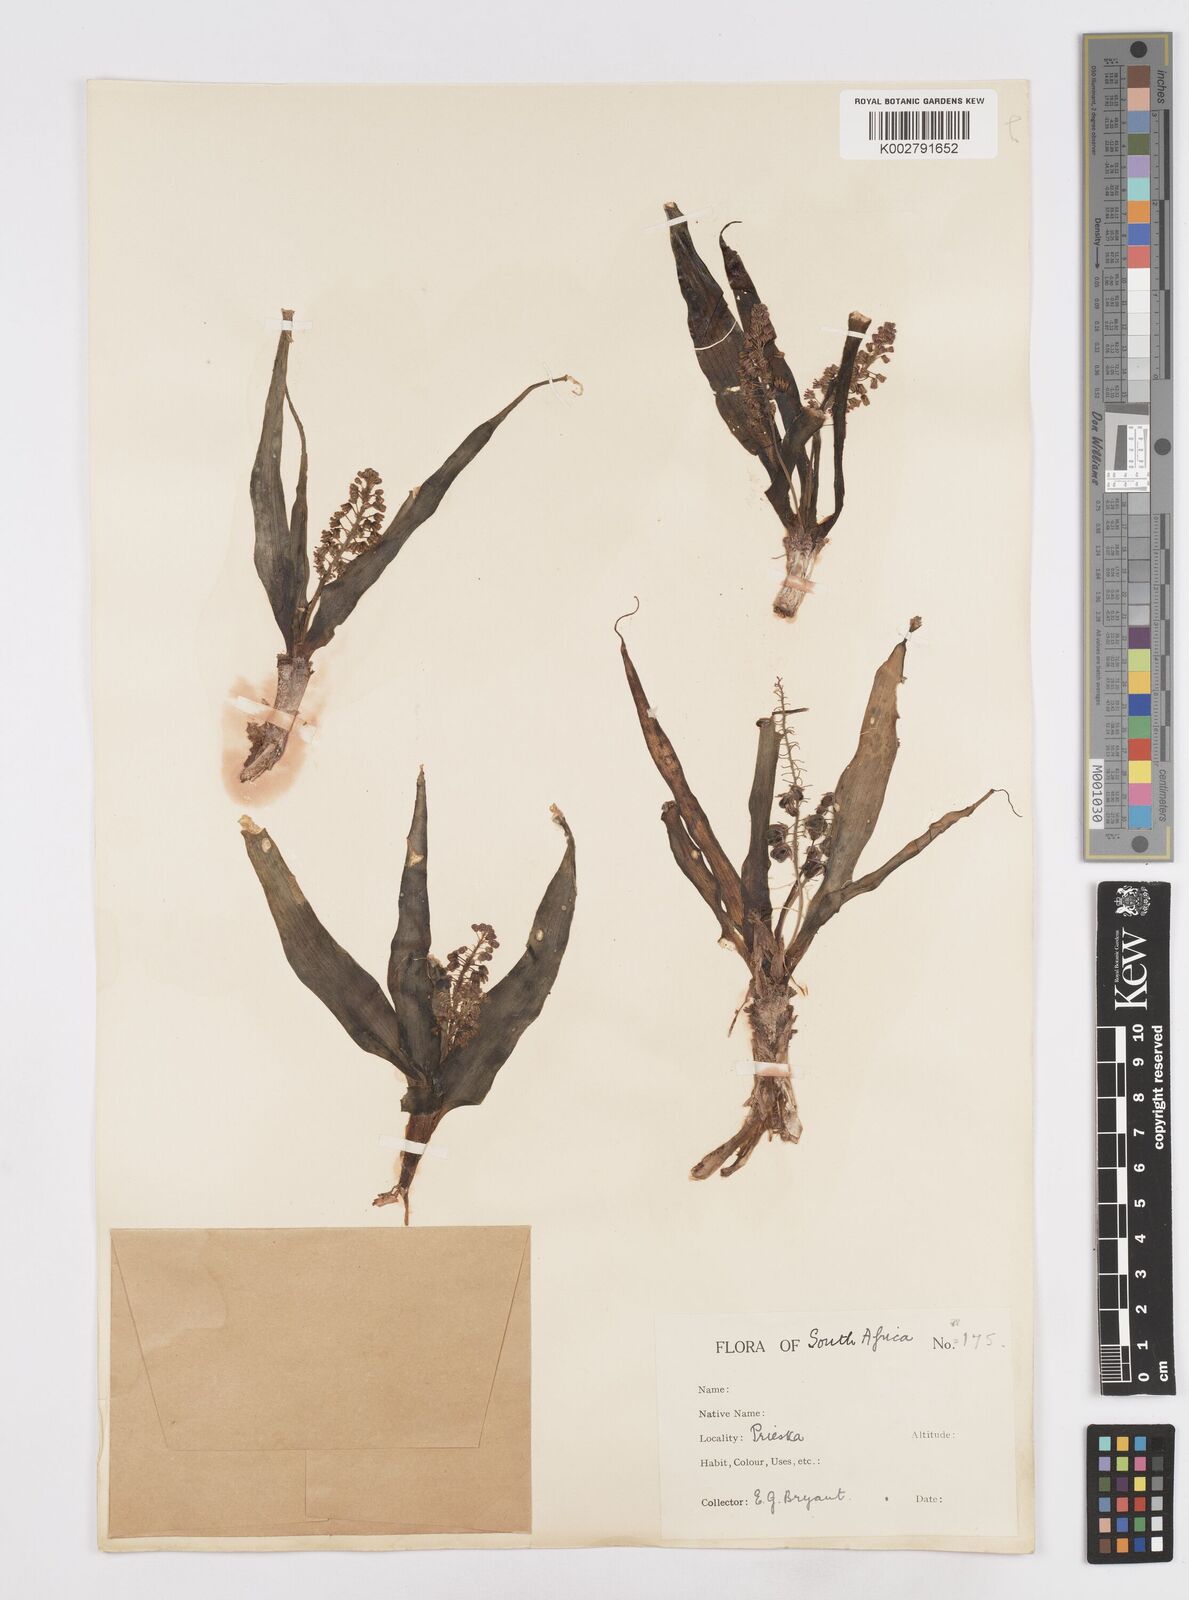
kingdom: Plantae
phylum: Tracheophyta
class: Liliopsida
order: Asparagales
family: Asparagaceae
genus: Scilla
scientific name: Scilla
